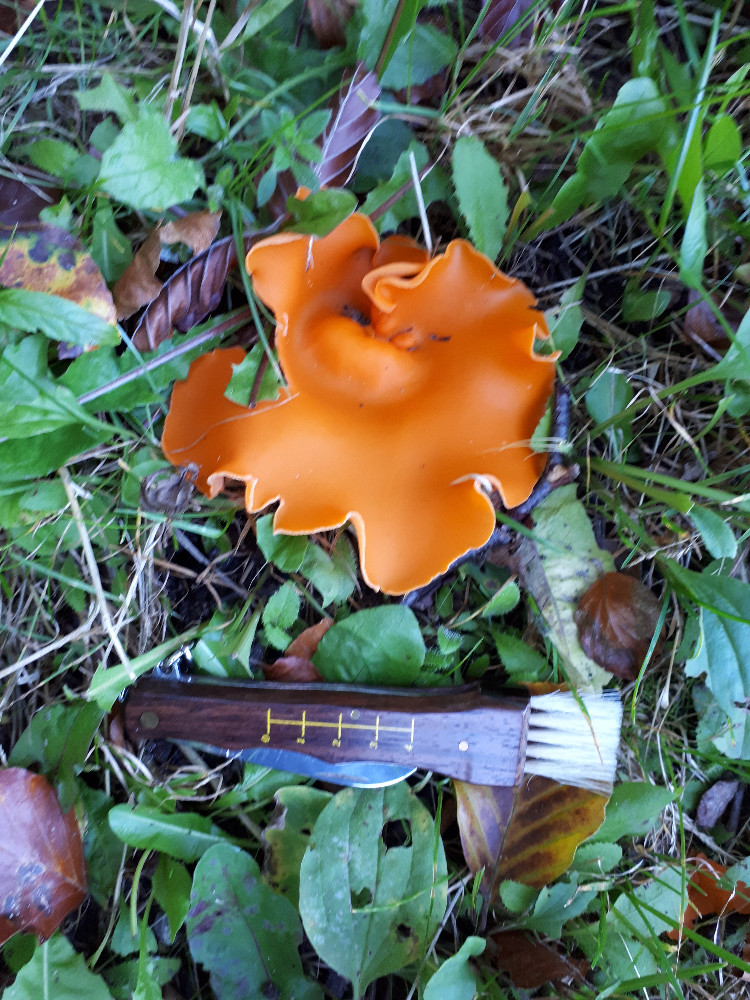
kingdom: Fungi
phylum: Ascomycota
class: Pezizomycetes
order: Pezizales
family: Pyronemataceae
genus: Aleuria
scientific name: Aleuria aurantia
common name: almindelig orangebæger
